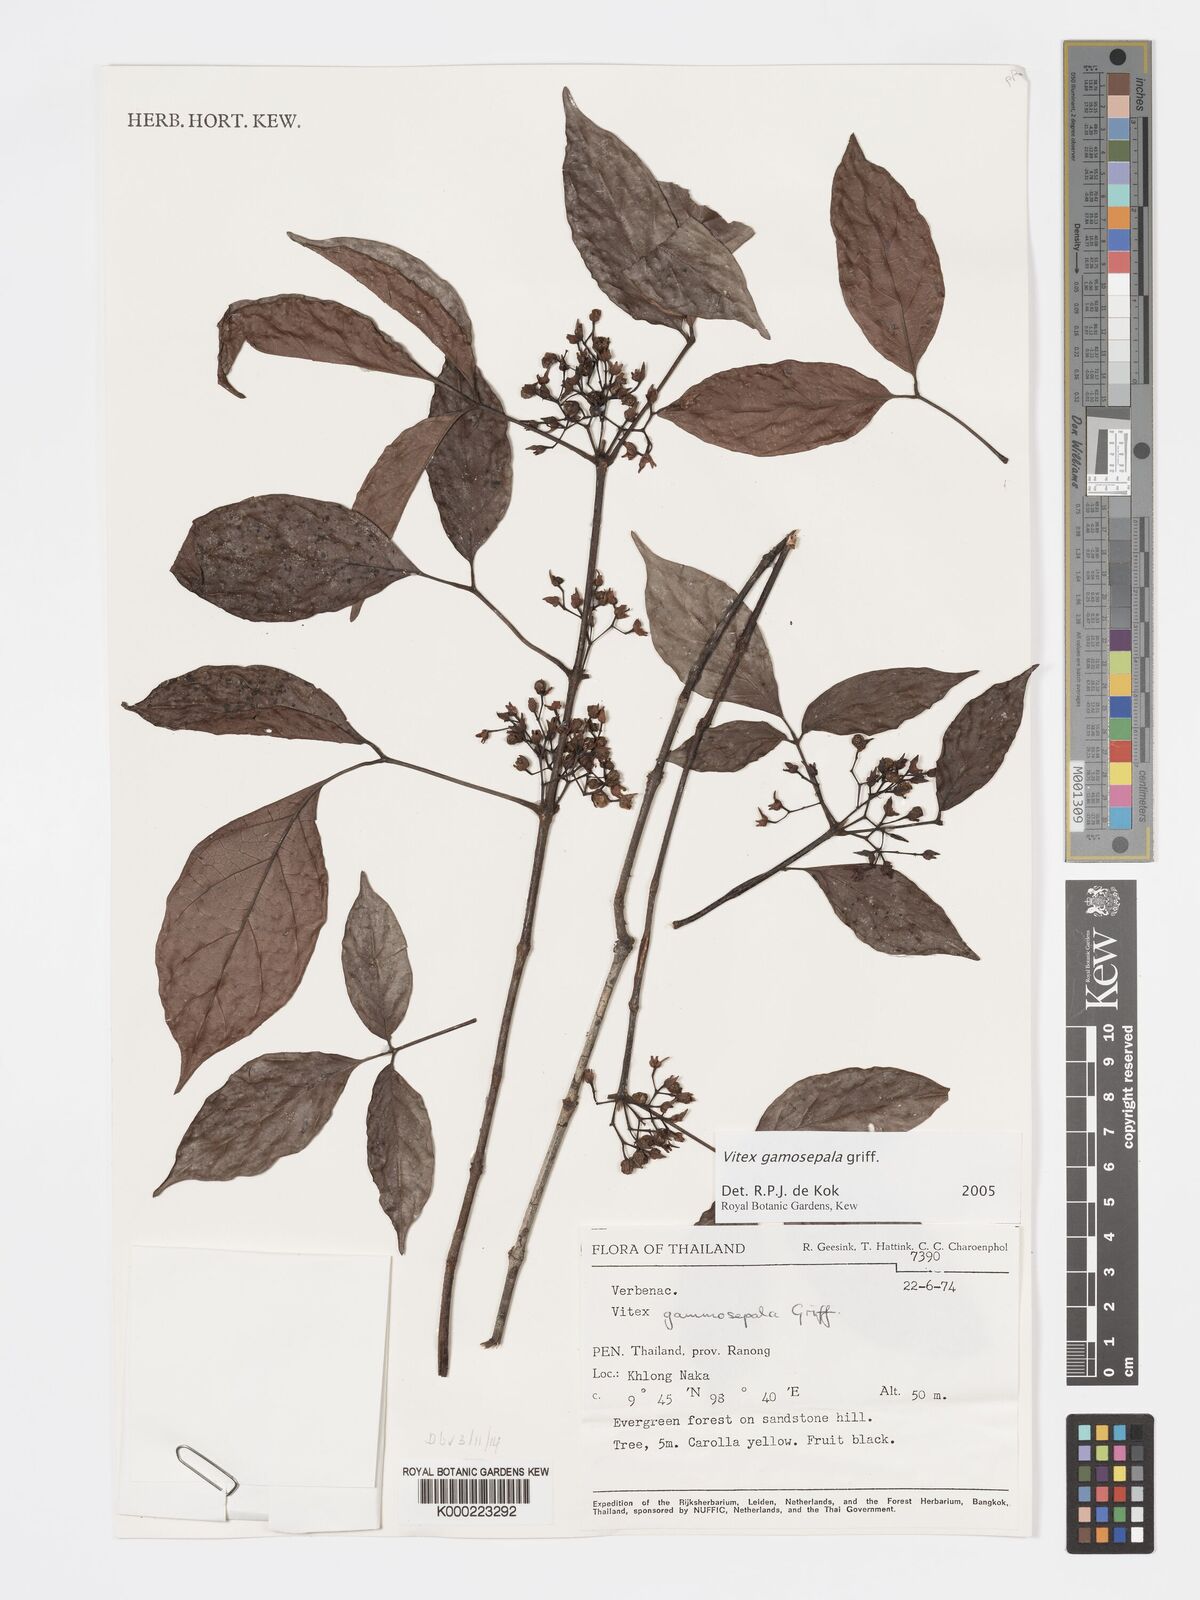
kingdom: Plantae
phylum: Tracheophyta
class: Magnoliopsida
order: Lamiales
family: Lamiaceae
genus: Vitex
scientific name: Vitex gamosepala
